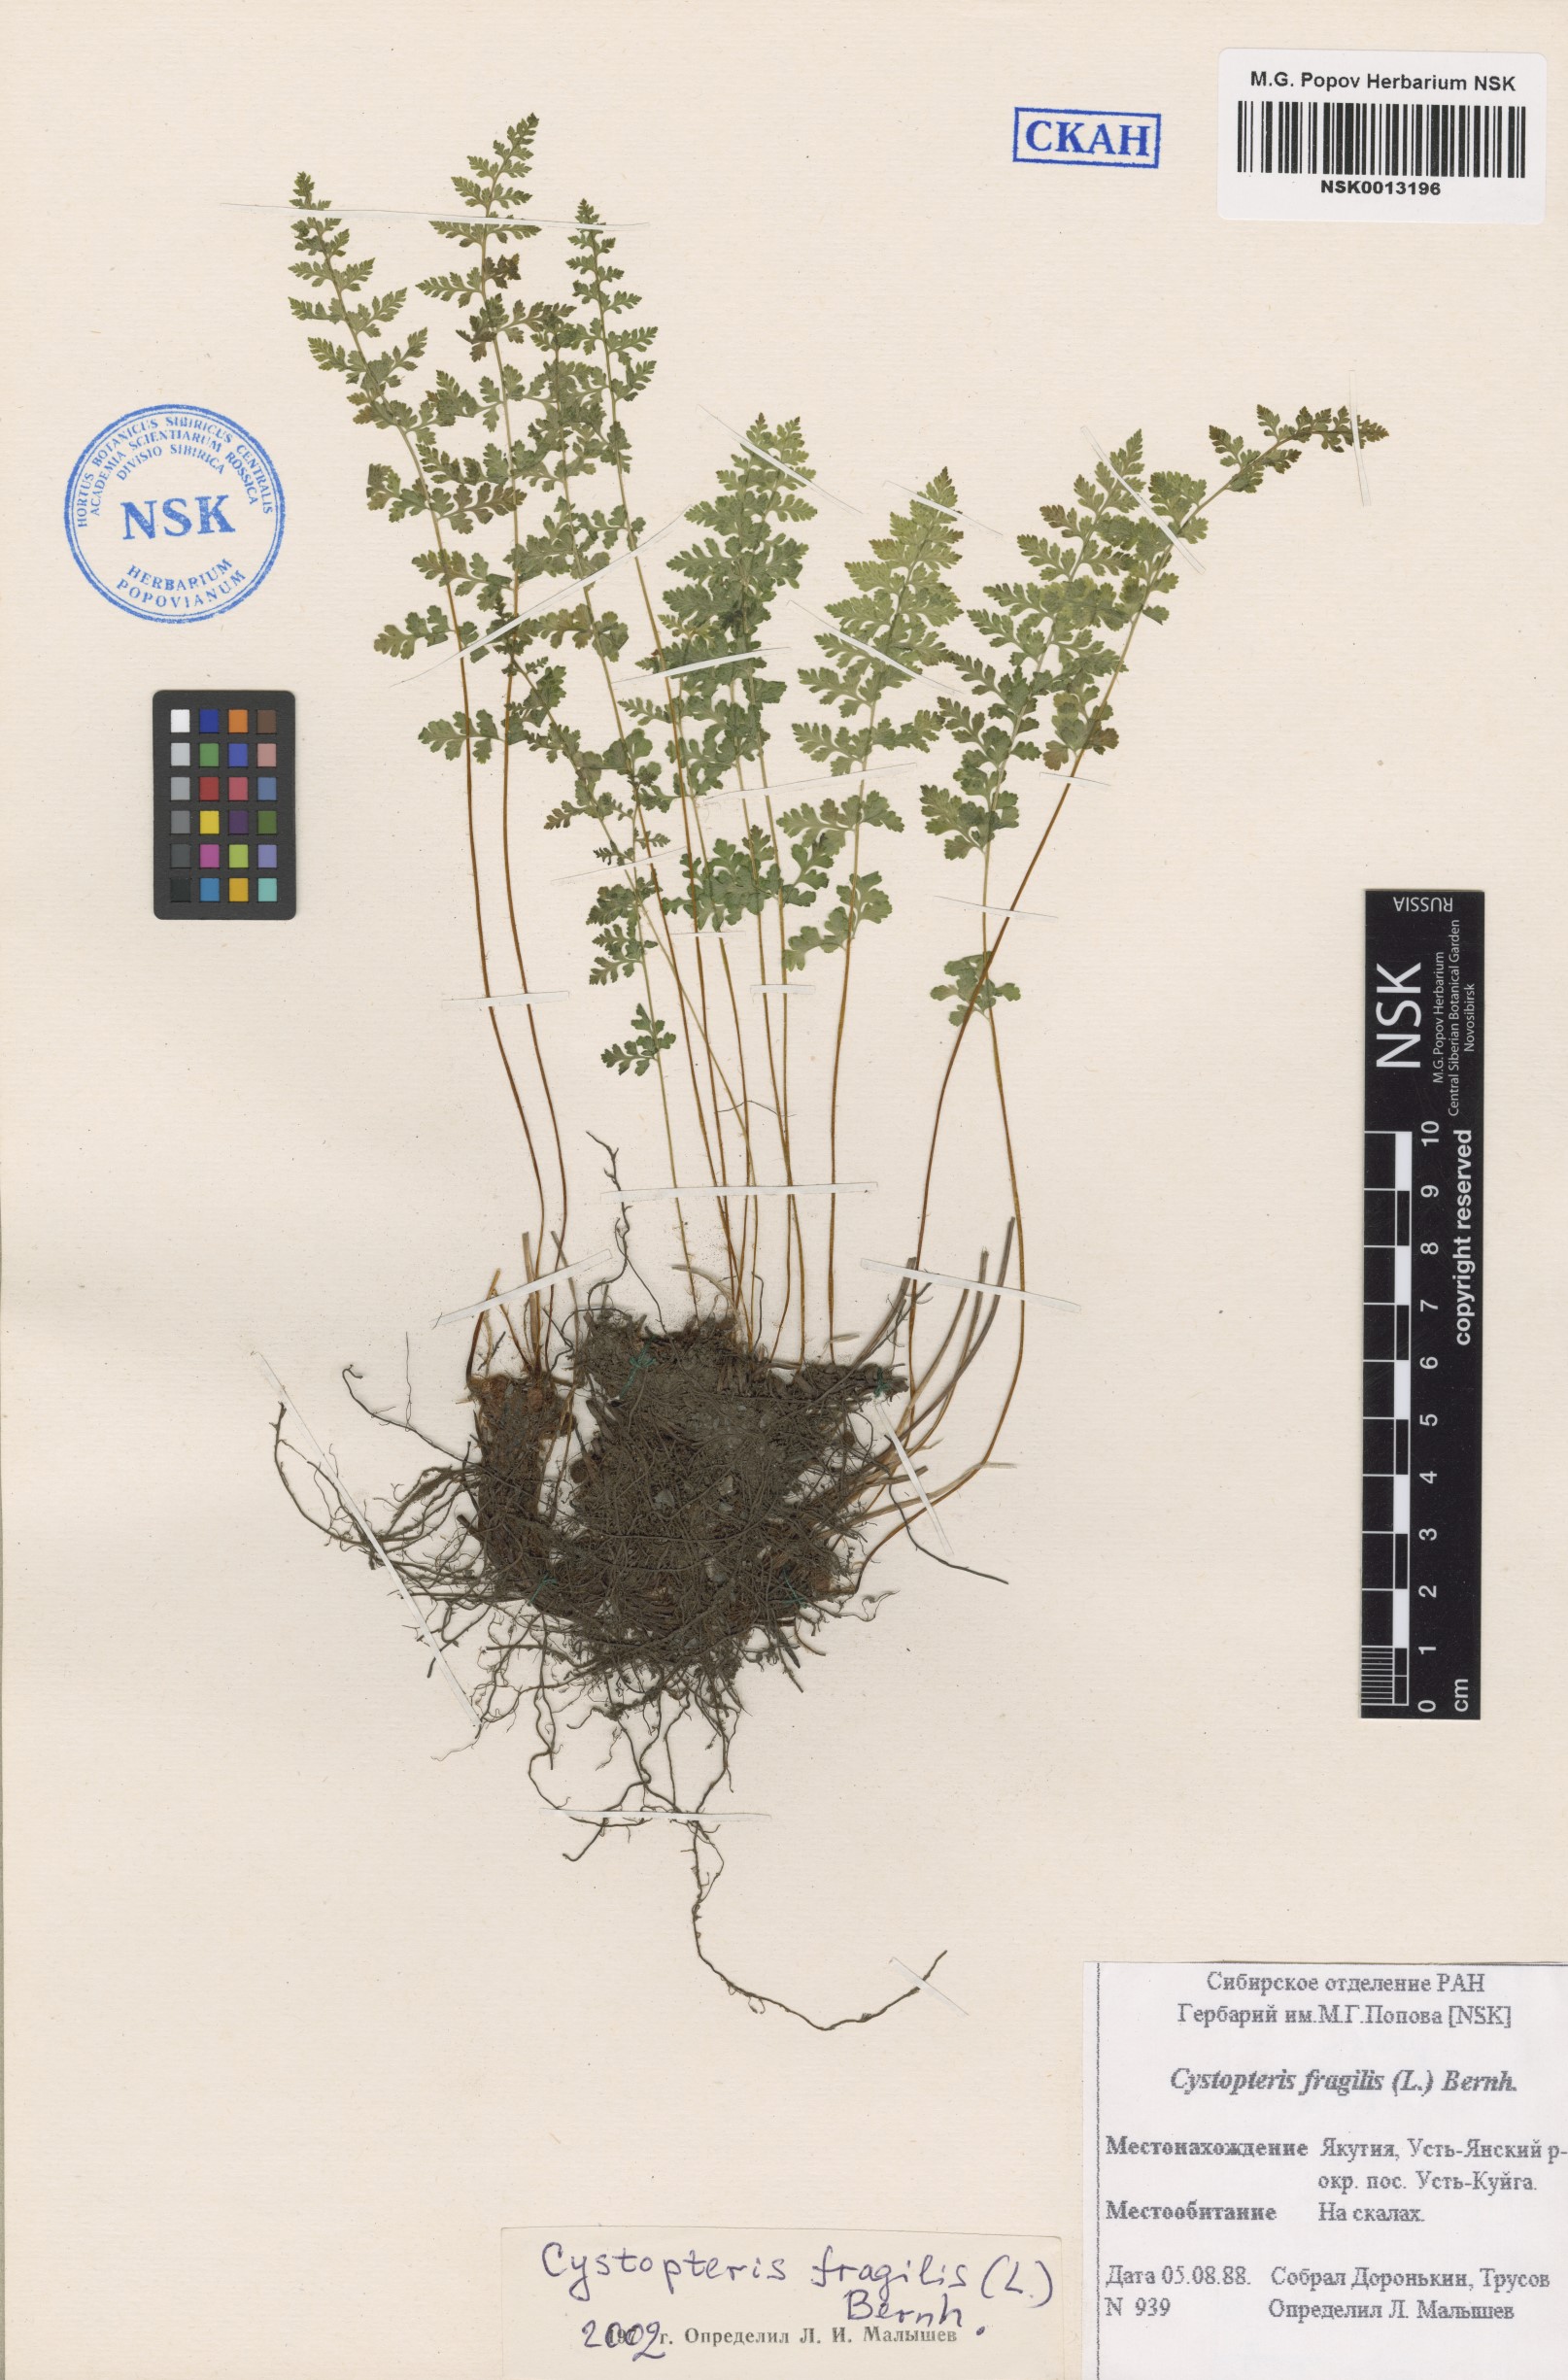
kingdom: Plantae
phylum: Tracheophyta
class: Polypodiopsida
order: Polypodiales
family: Cystopteridaceae
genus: Cystopteris
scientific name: Cystopteris fragilis
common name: Brittle bladder fern
